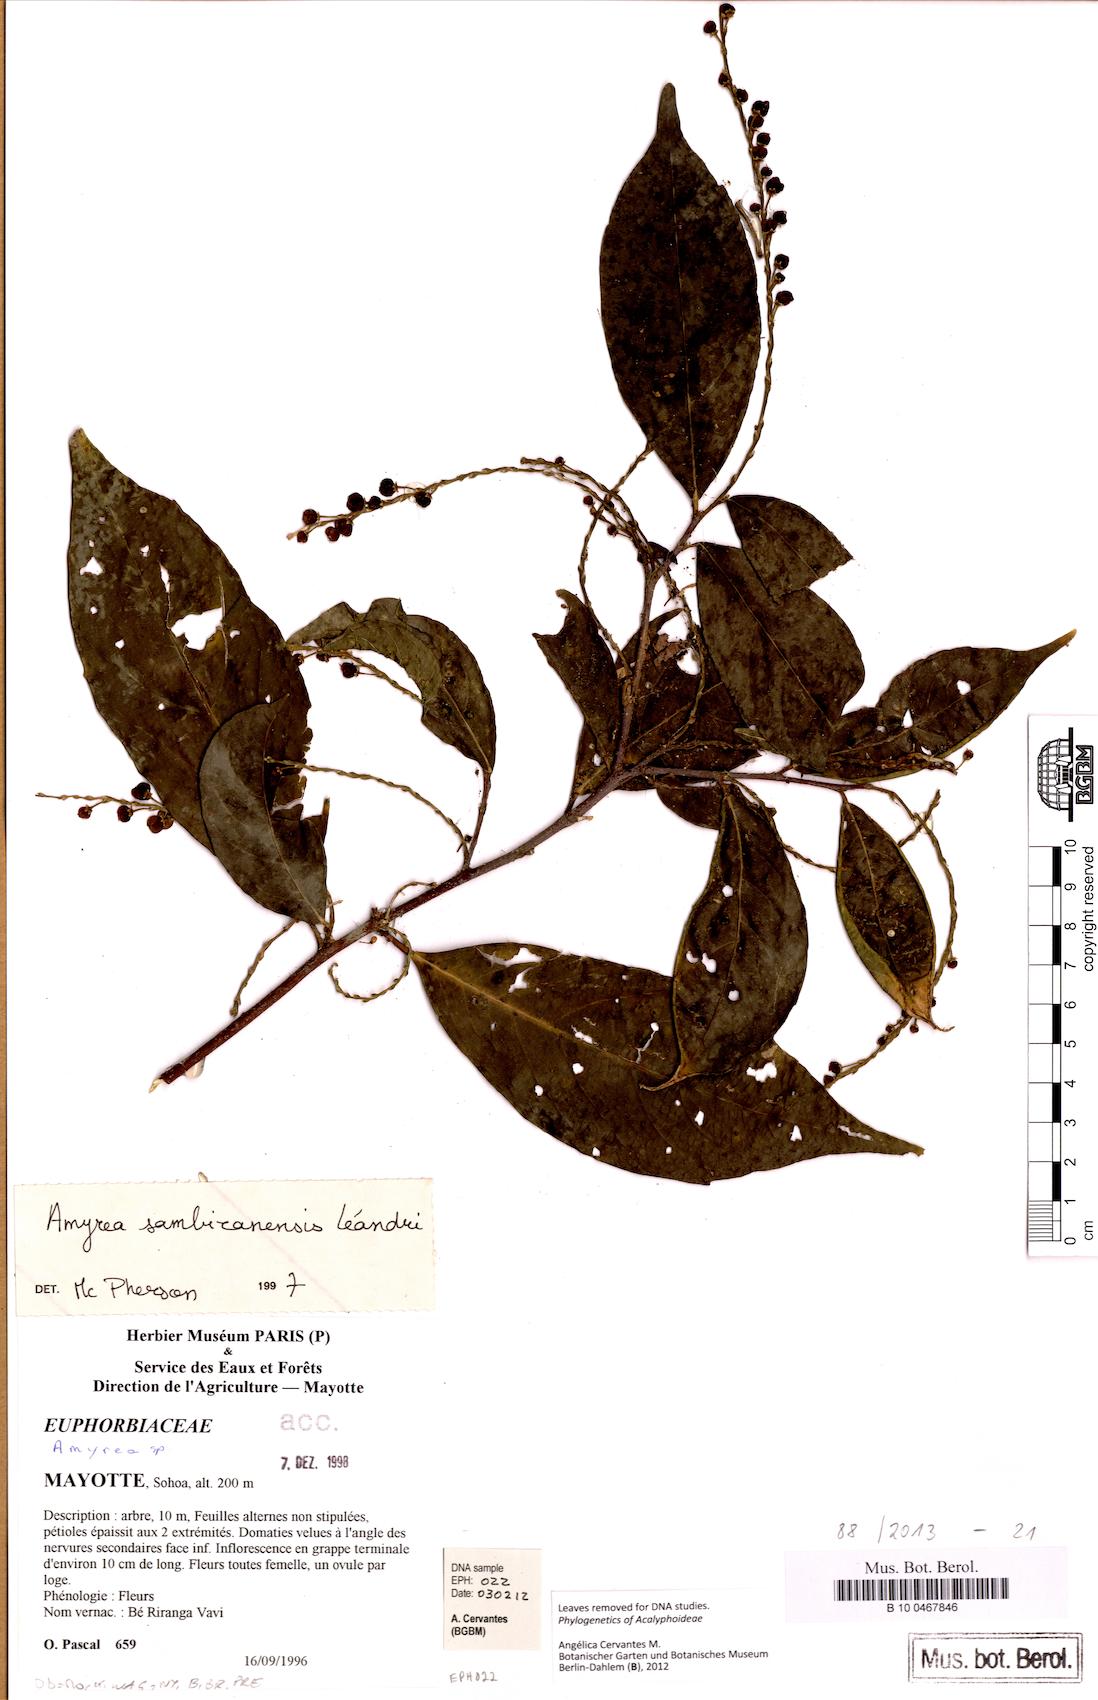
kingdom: Plantae
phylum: Tracheophyta
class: Magnoliopsida
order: Malpighiales
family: Euphorbiaceae
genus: Amyrea
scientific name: Amyrea sambiranensis
